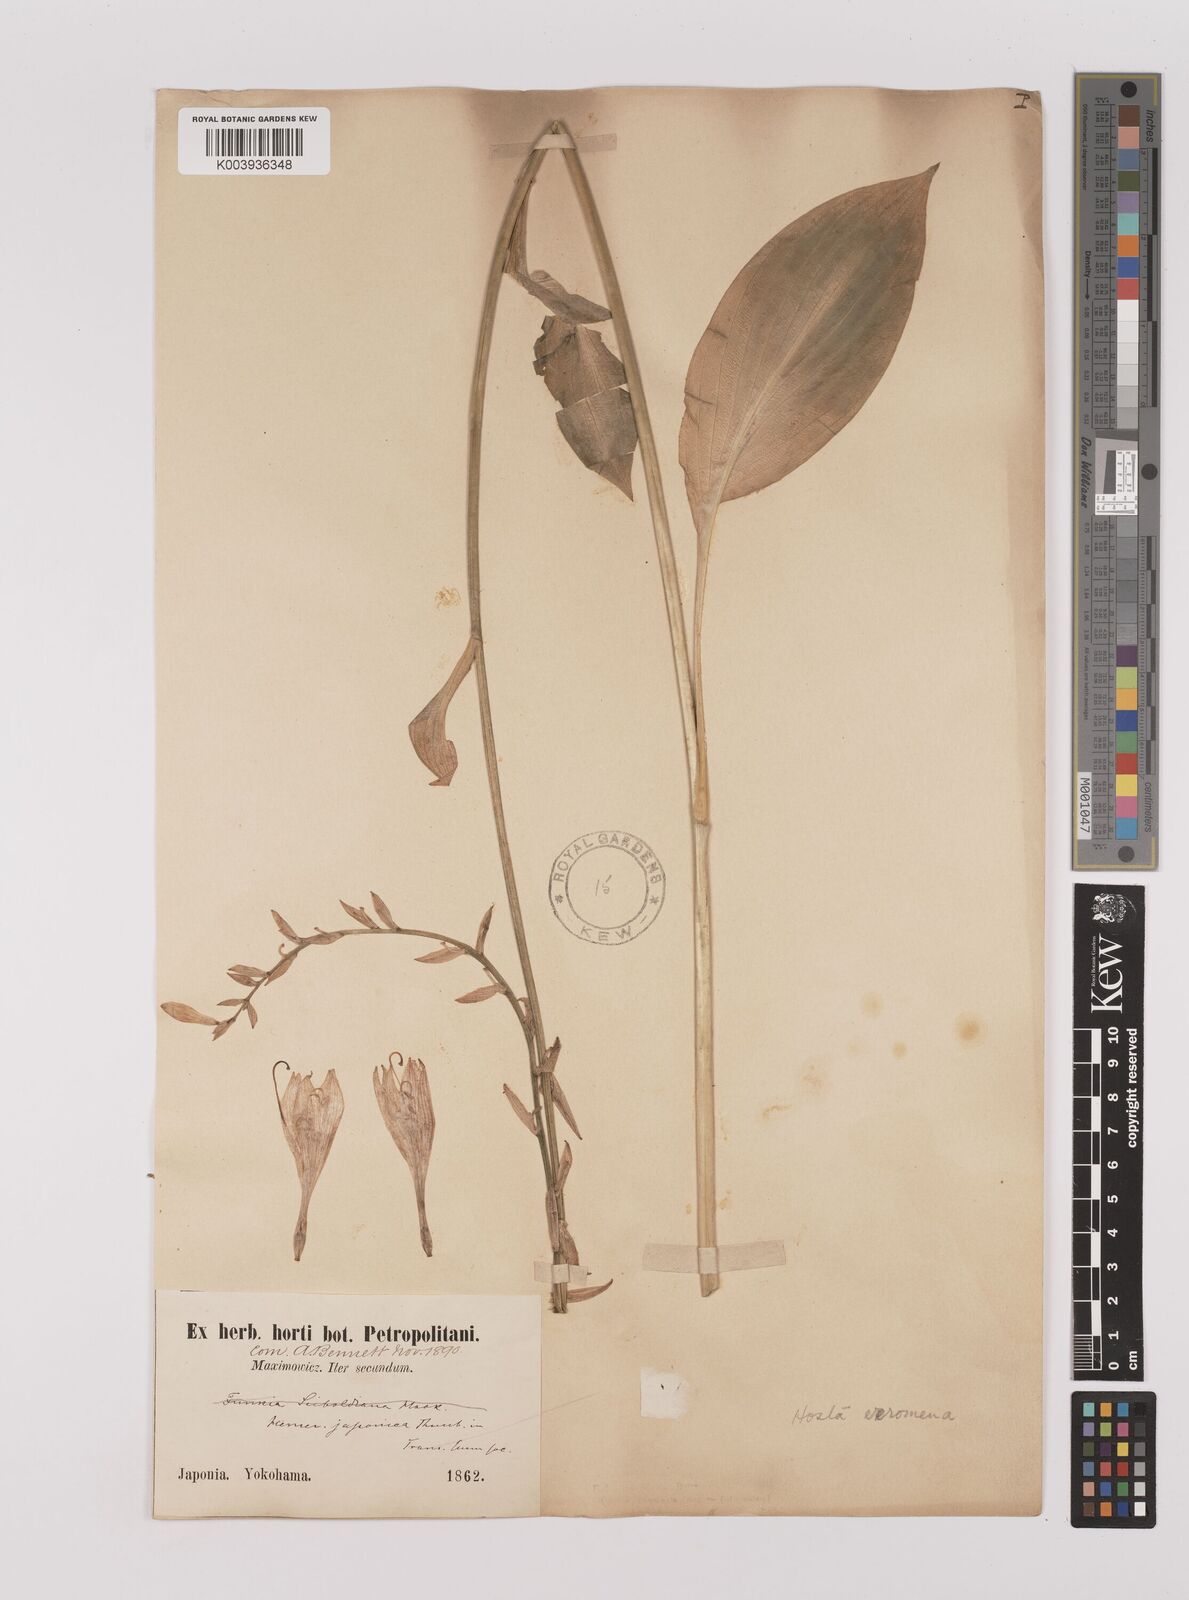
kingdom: Plantae
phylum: Tracheophyta
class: Liliopsida
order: Asparagales
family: Asparagaceae
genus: Hosta
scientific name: Hosta sieboldii
